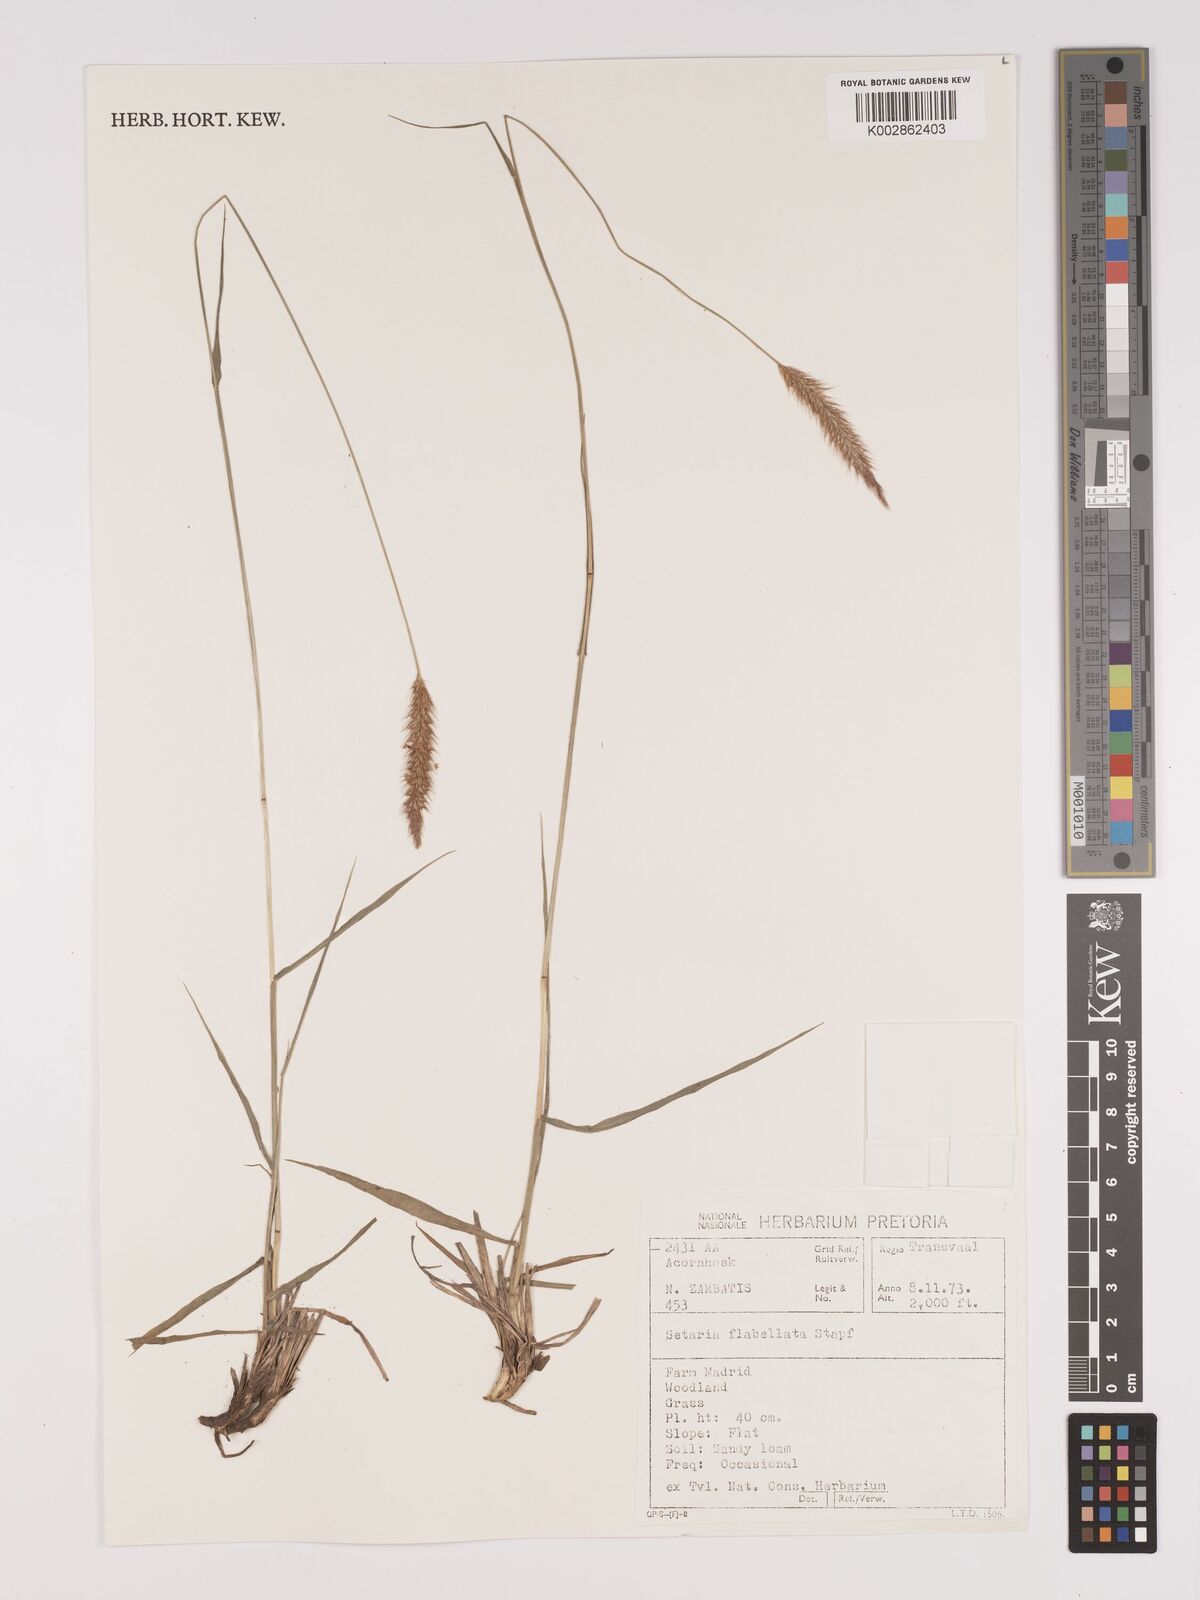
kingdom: Plantae
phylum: Tracheophyta
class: Liliopsida
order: Poales
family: Poaceae
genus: Setaria
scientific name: Setaria sphacelata
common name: African bristlegrass
